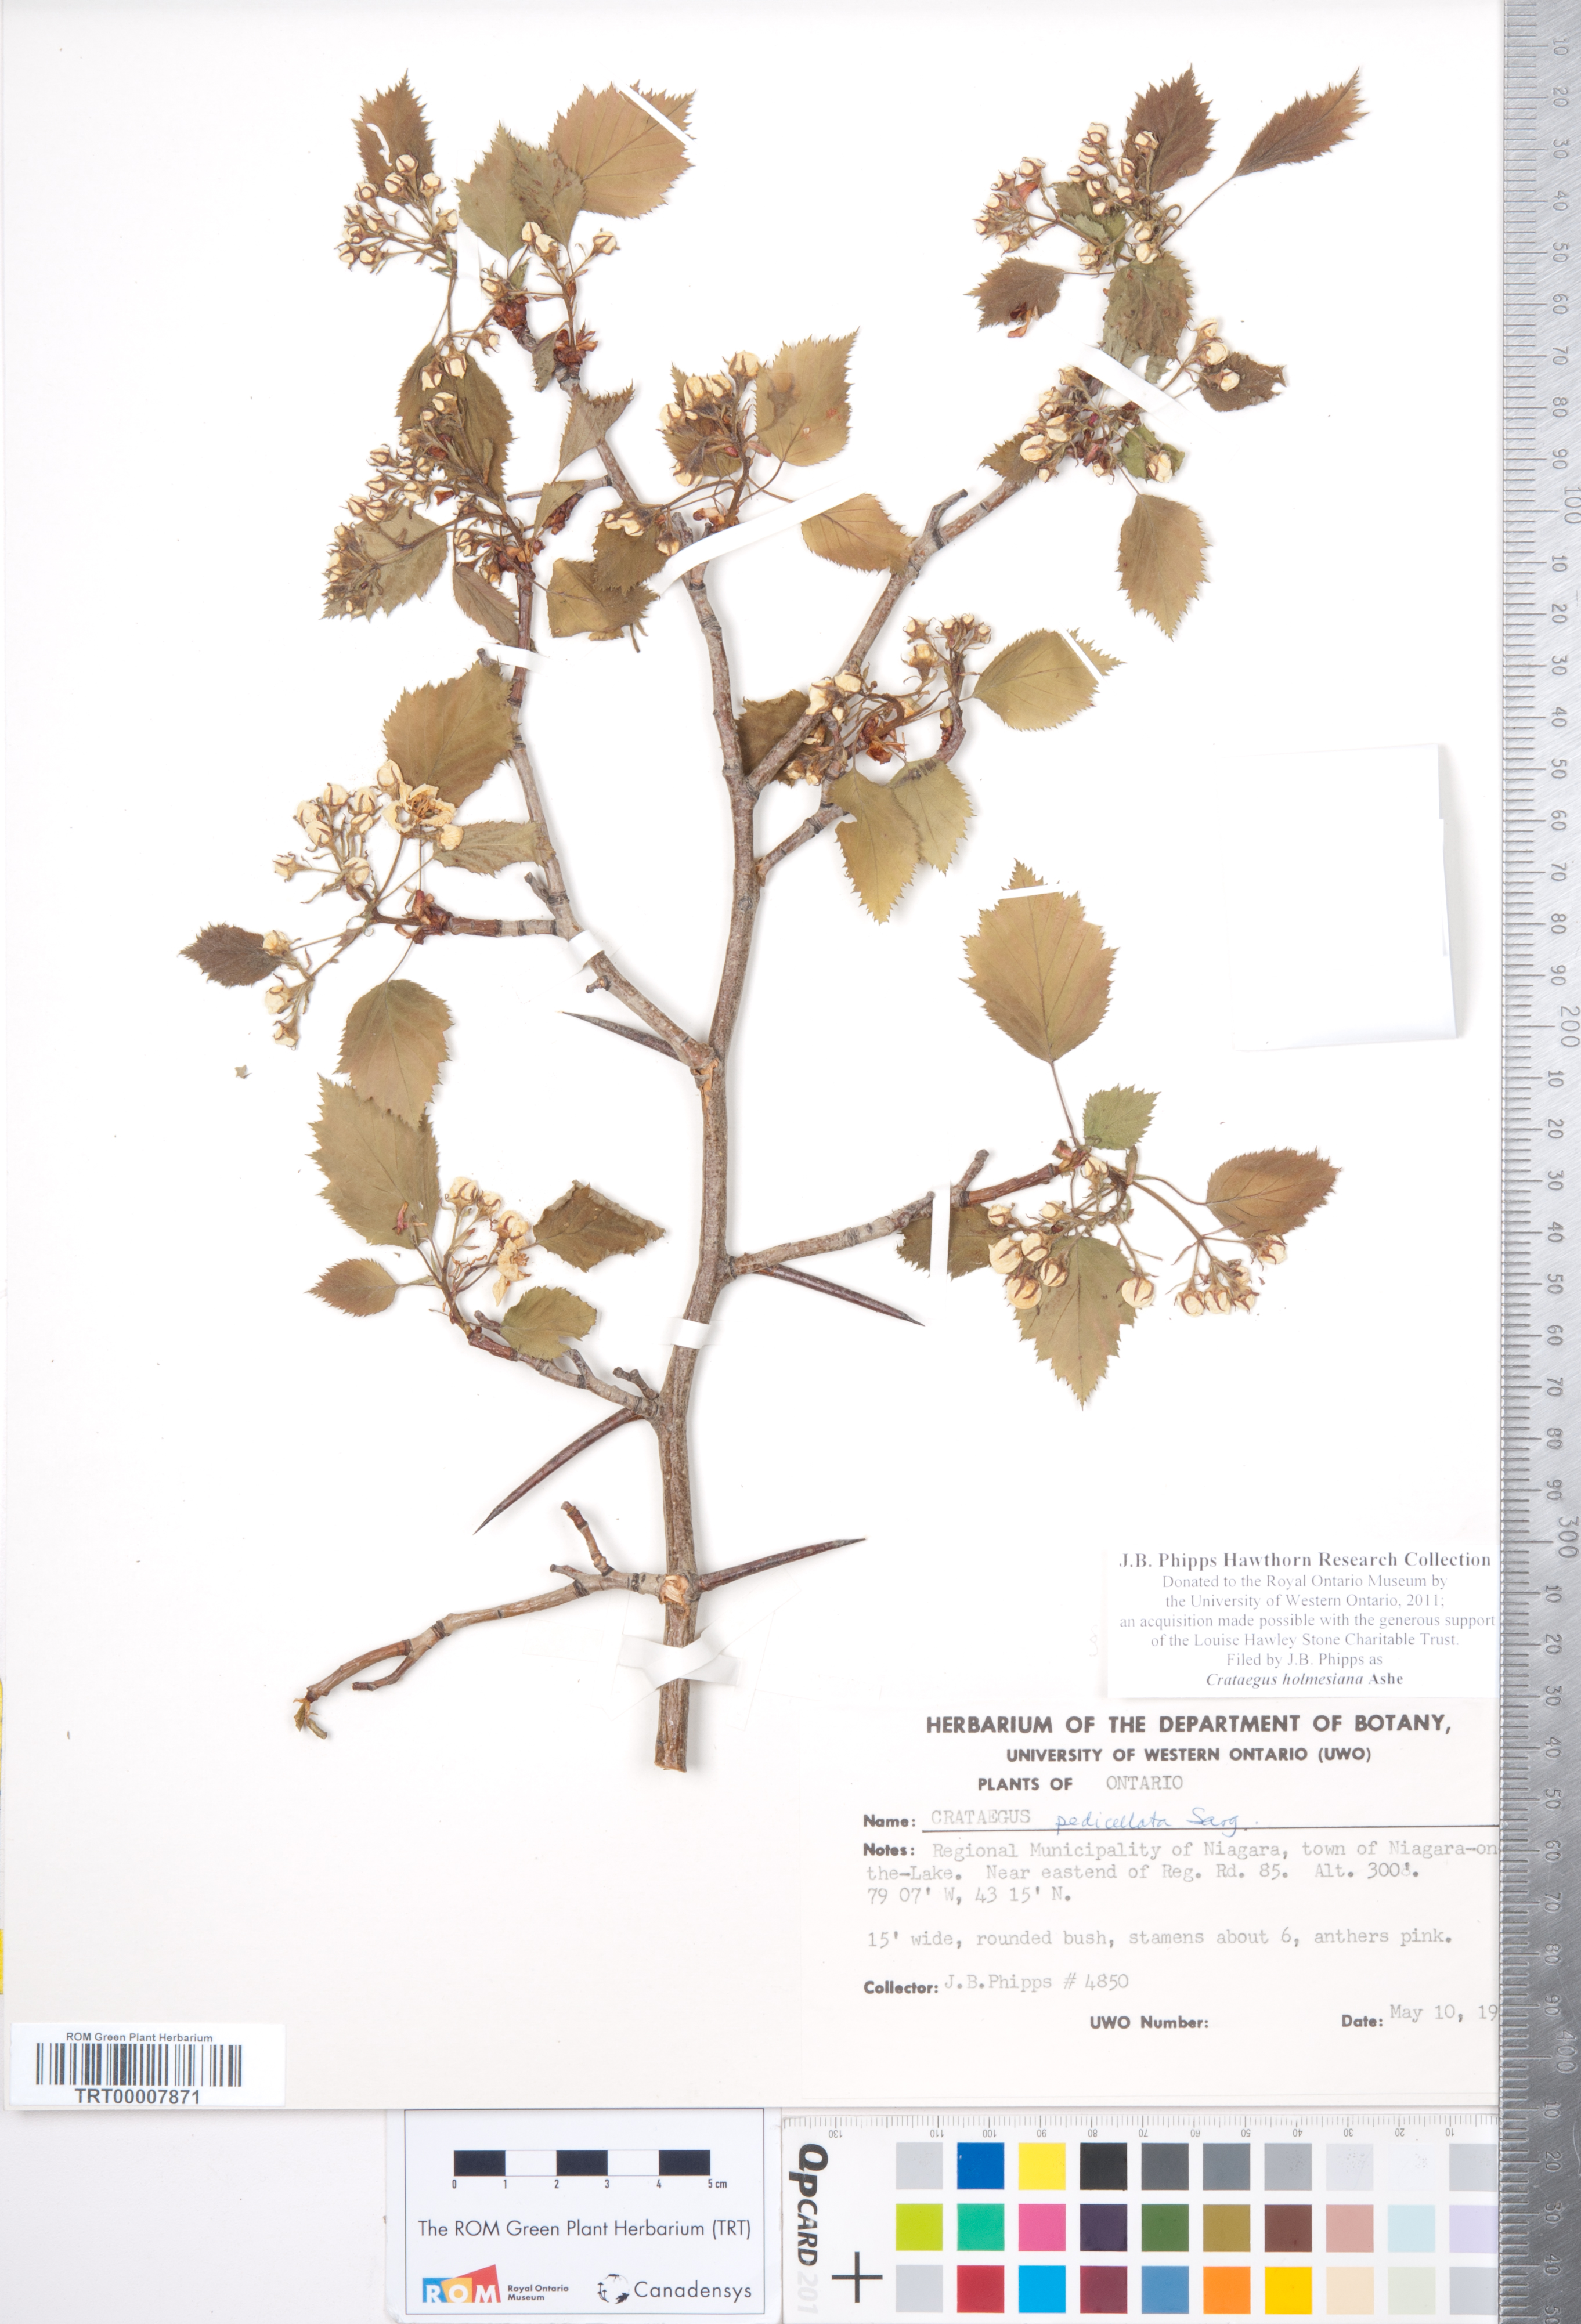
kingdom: Plantae
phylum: Tracheophyta
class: Magnoliopsida
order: Rosales
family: Rosaceae
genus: Crataegus
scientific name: Crataegus holmesiana
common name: Holmes' hawthorn
